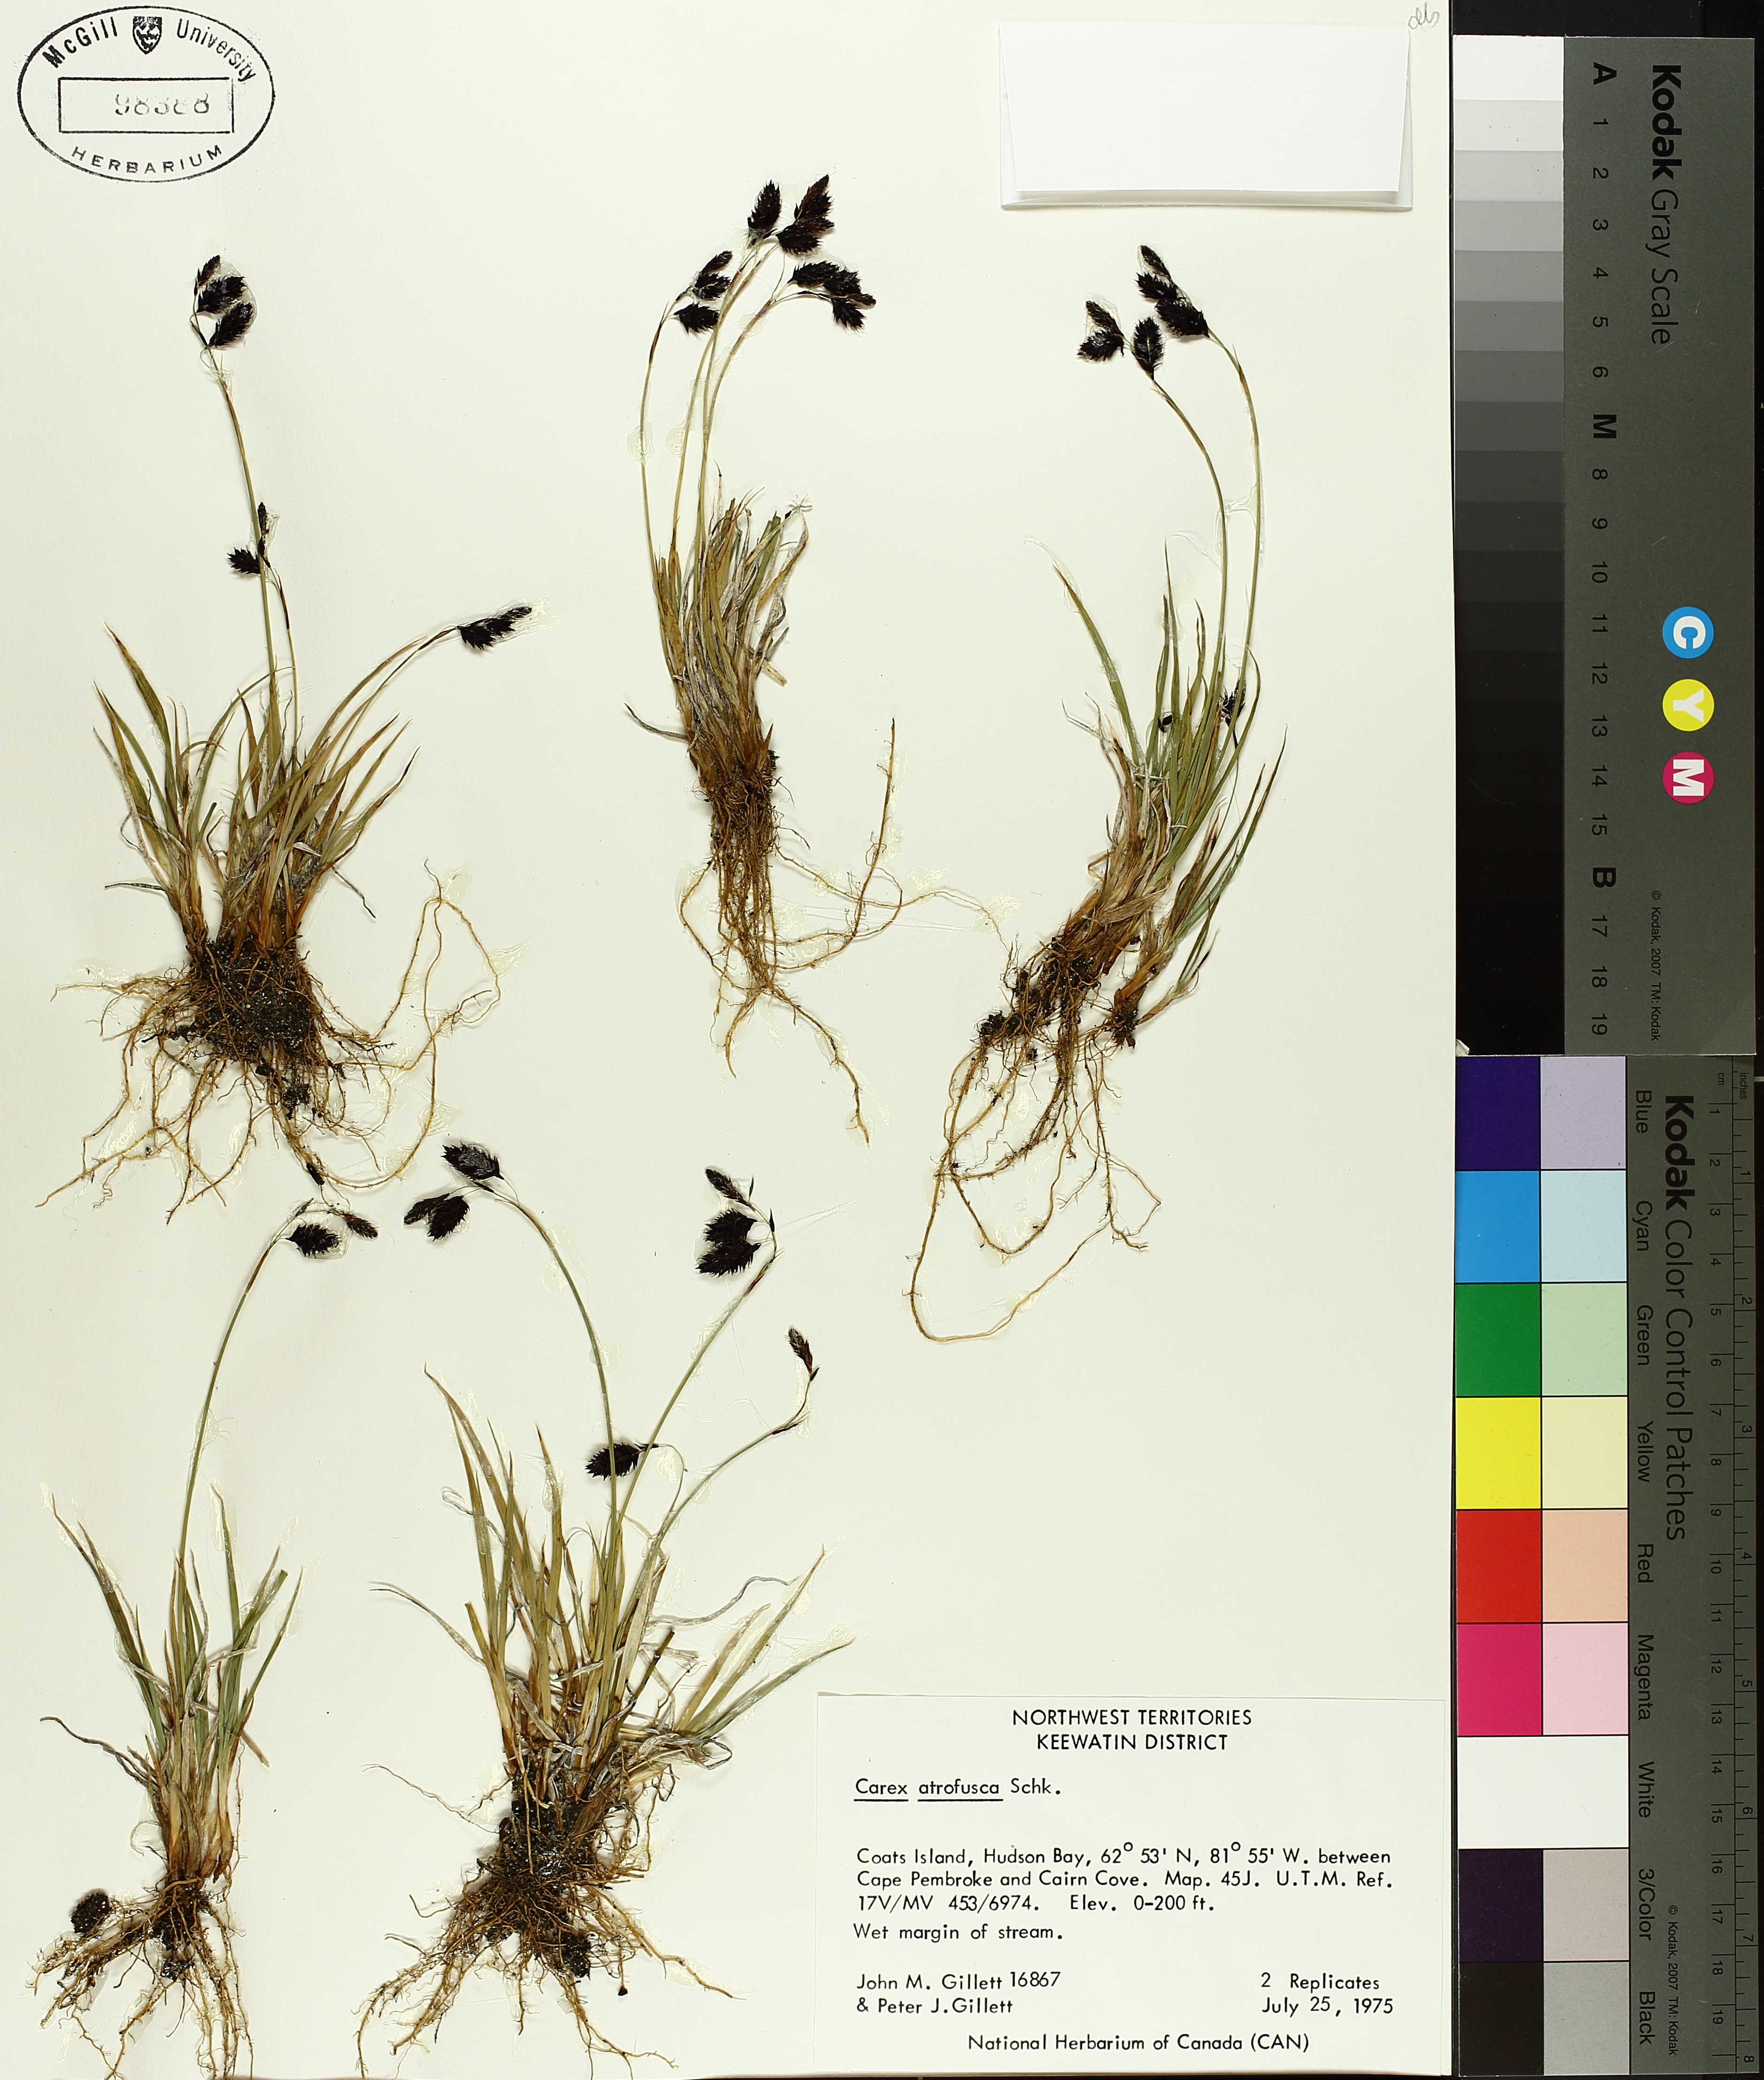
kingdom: Plantae
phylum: Tracheophyta
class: Liliopsida
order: Poales
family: Cyperaceae
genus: Carex
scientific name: Carex atrofusca
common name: Scorched alpine-sedge
